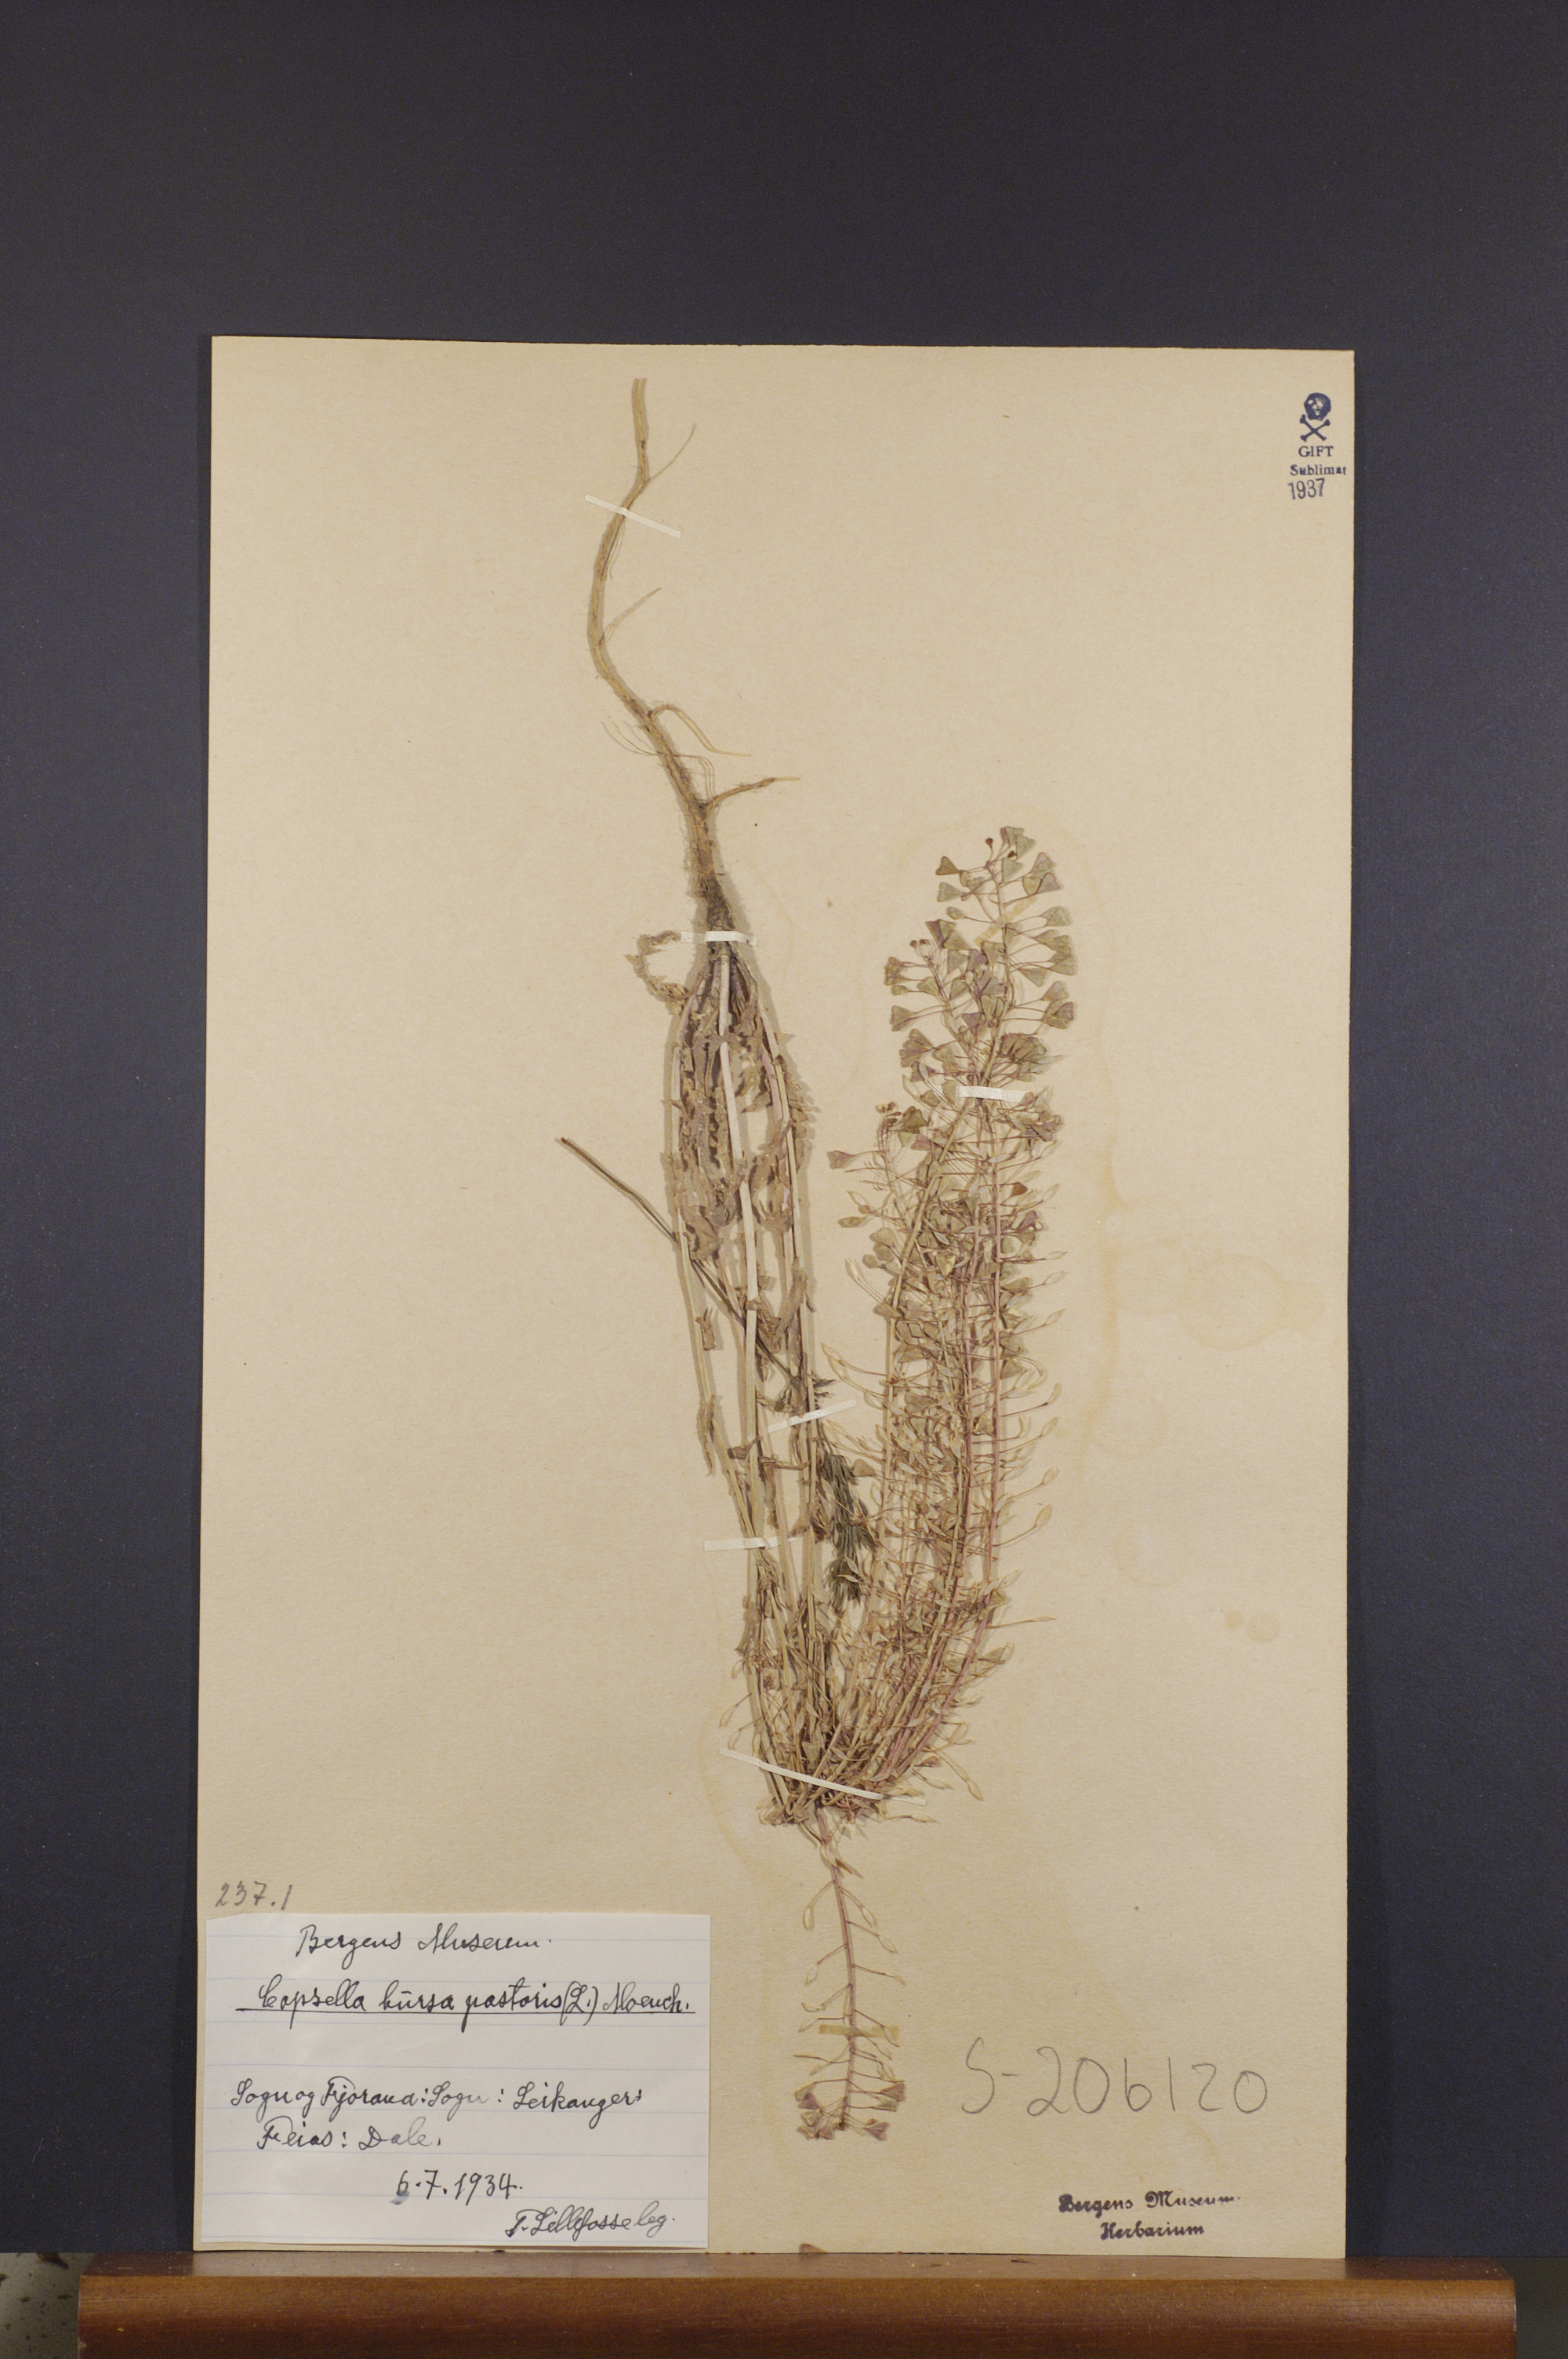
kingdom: Plantae
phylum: Tracheophyta
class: Magnoliopsida
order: Brassicales
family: Brassicaceae
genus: Capsella
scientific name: Capsella bursa-pastoris
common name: Shepherd's purse
